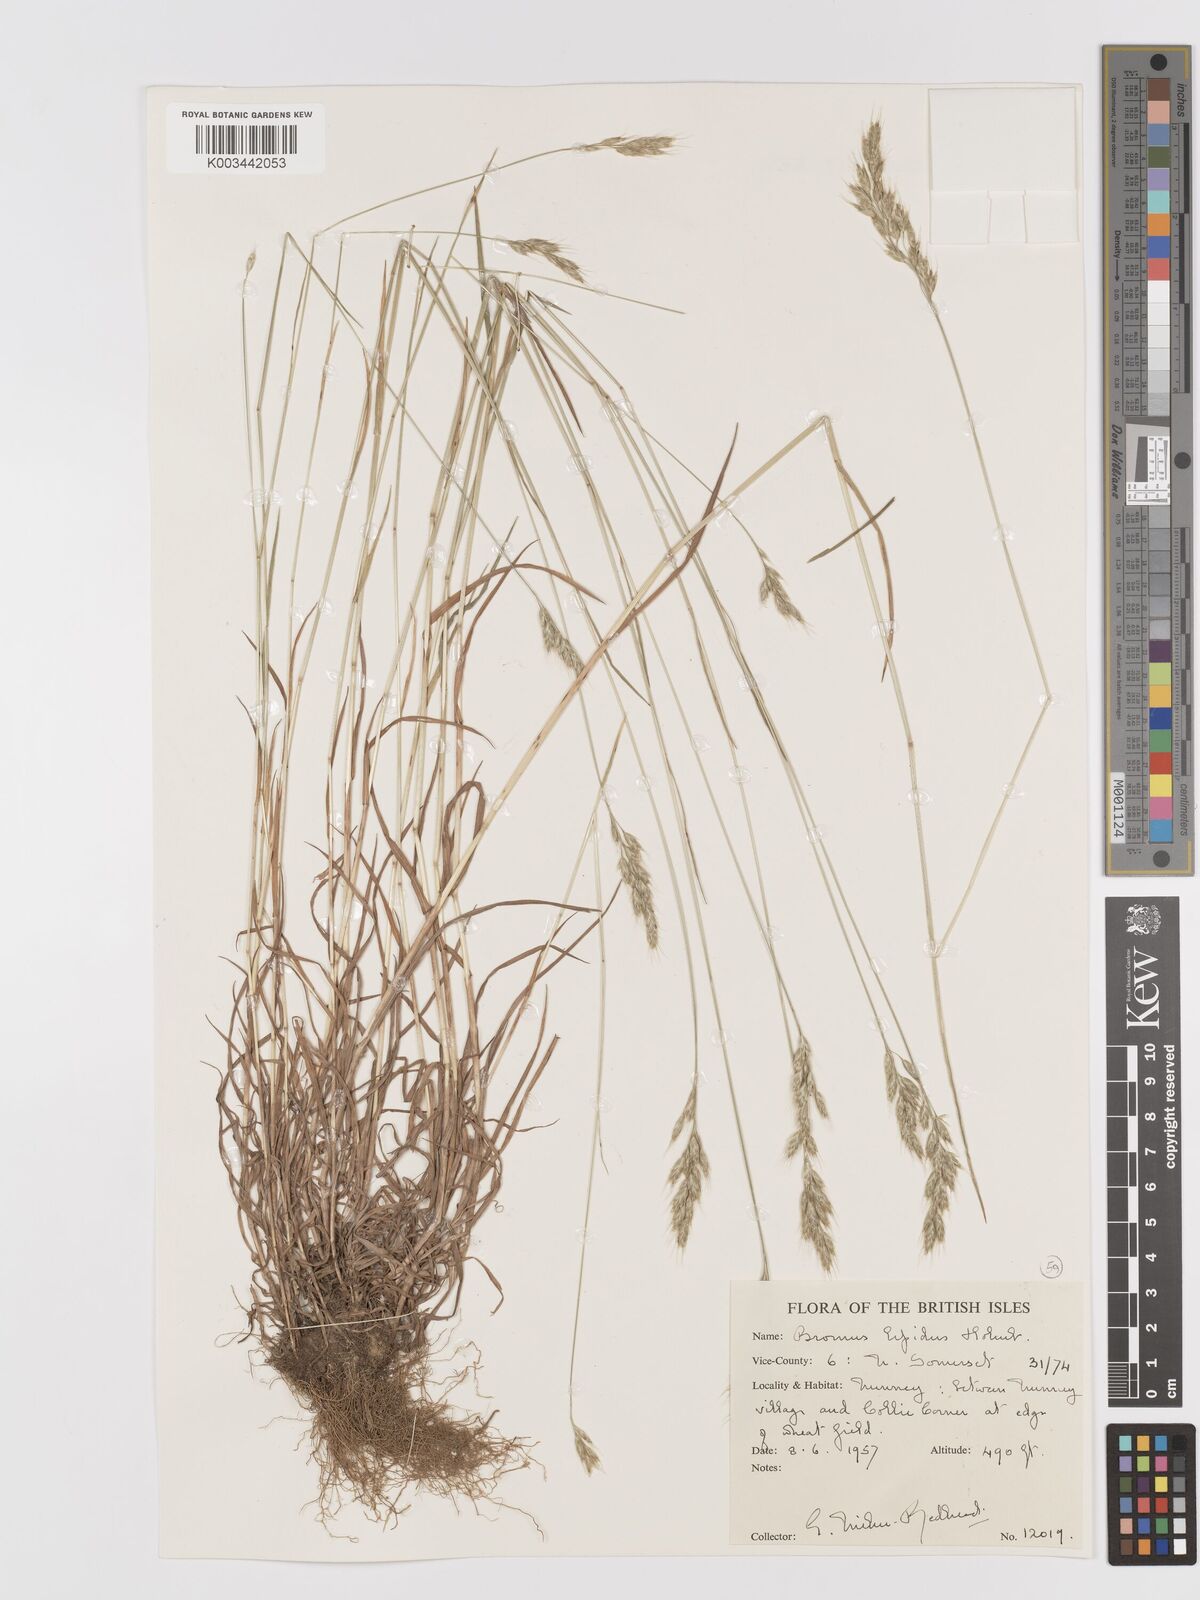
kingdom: Plantae
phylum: Tracheophyta
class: Liliopsida
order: Poales
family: Poaceae
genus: Bromus
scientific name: Bromus lepidus
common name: Slender soft-brome
